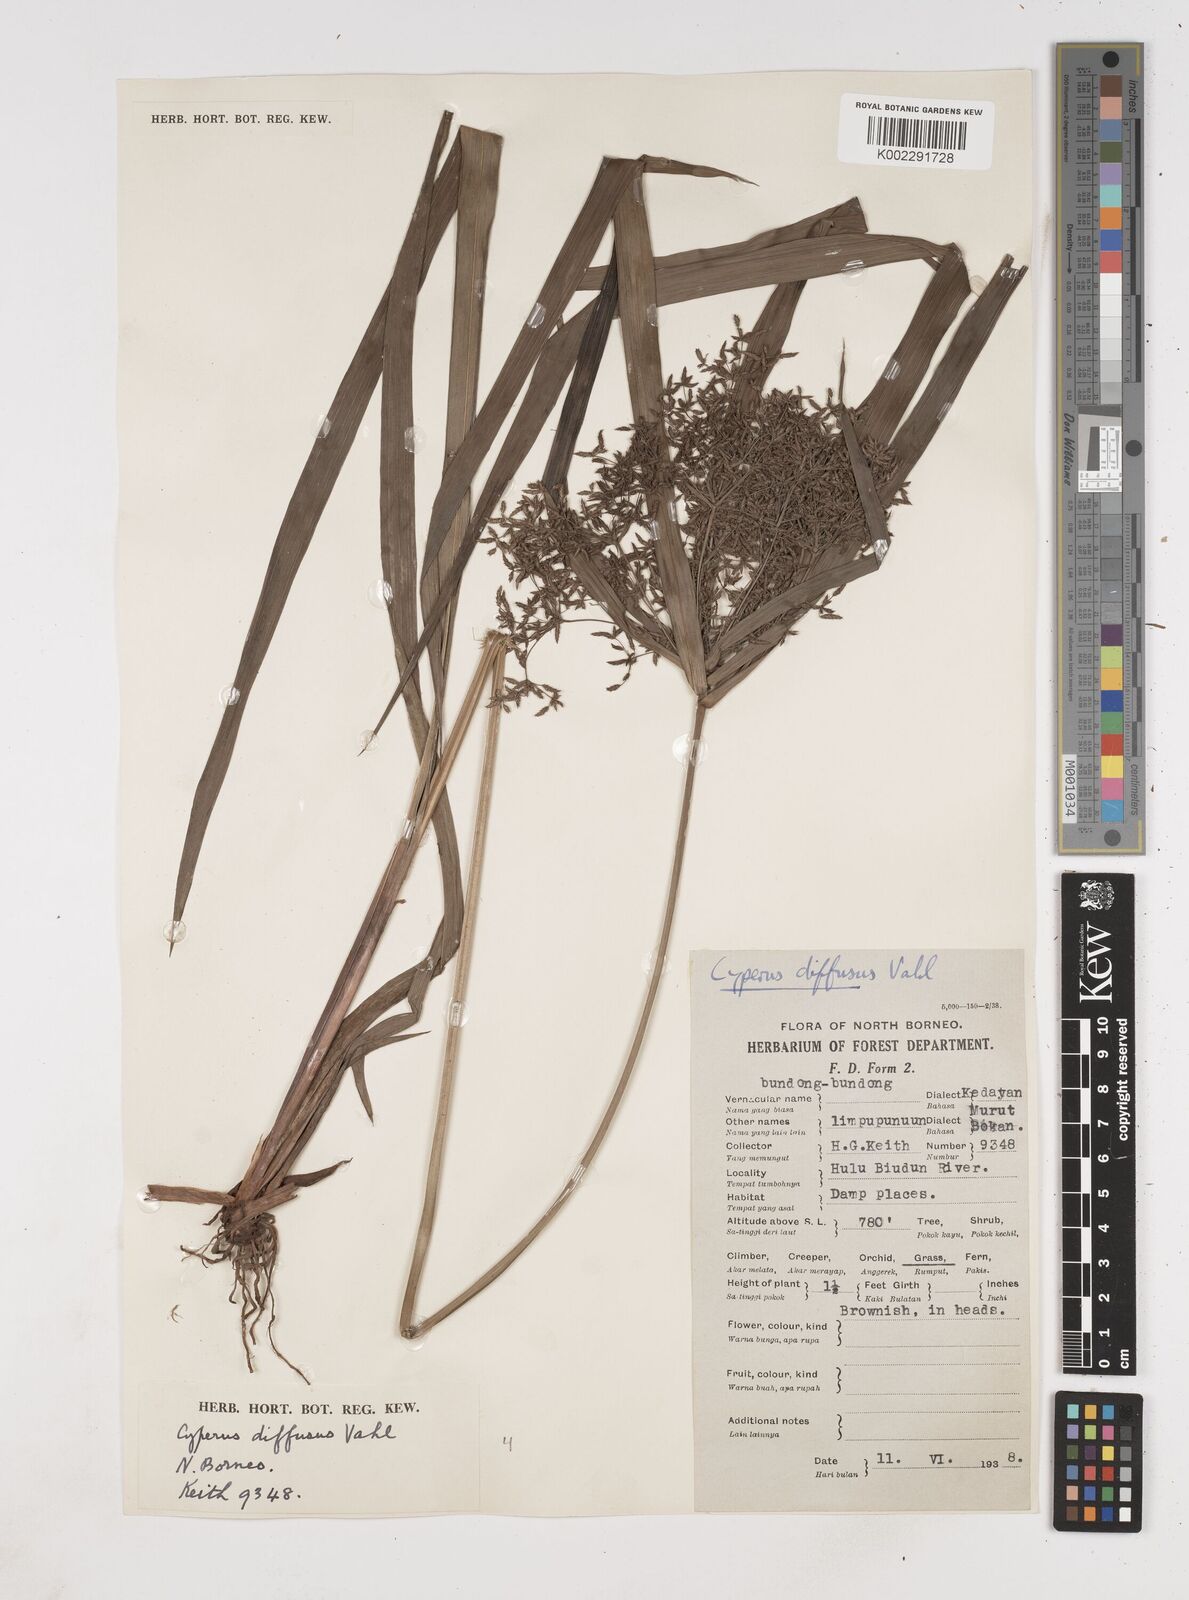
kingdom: Plantae
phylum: Tracheophyta
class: Liliopsida
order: Poales
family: Cyperaceae
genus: Cyperus
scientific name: Cyperus diffusus
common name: Dwarf umbrella grass
